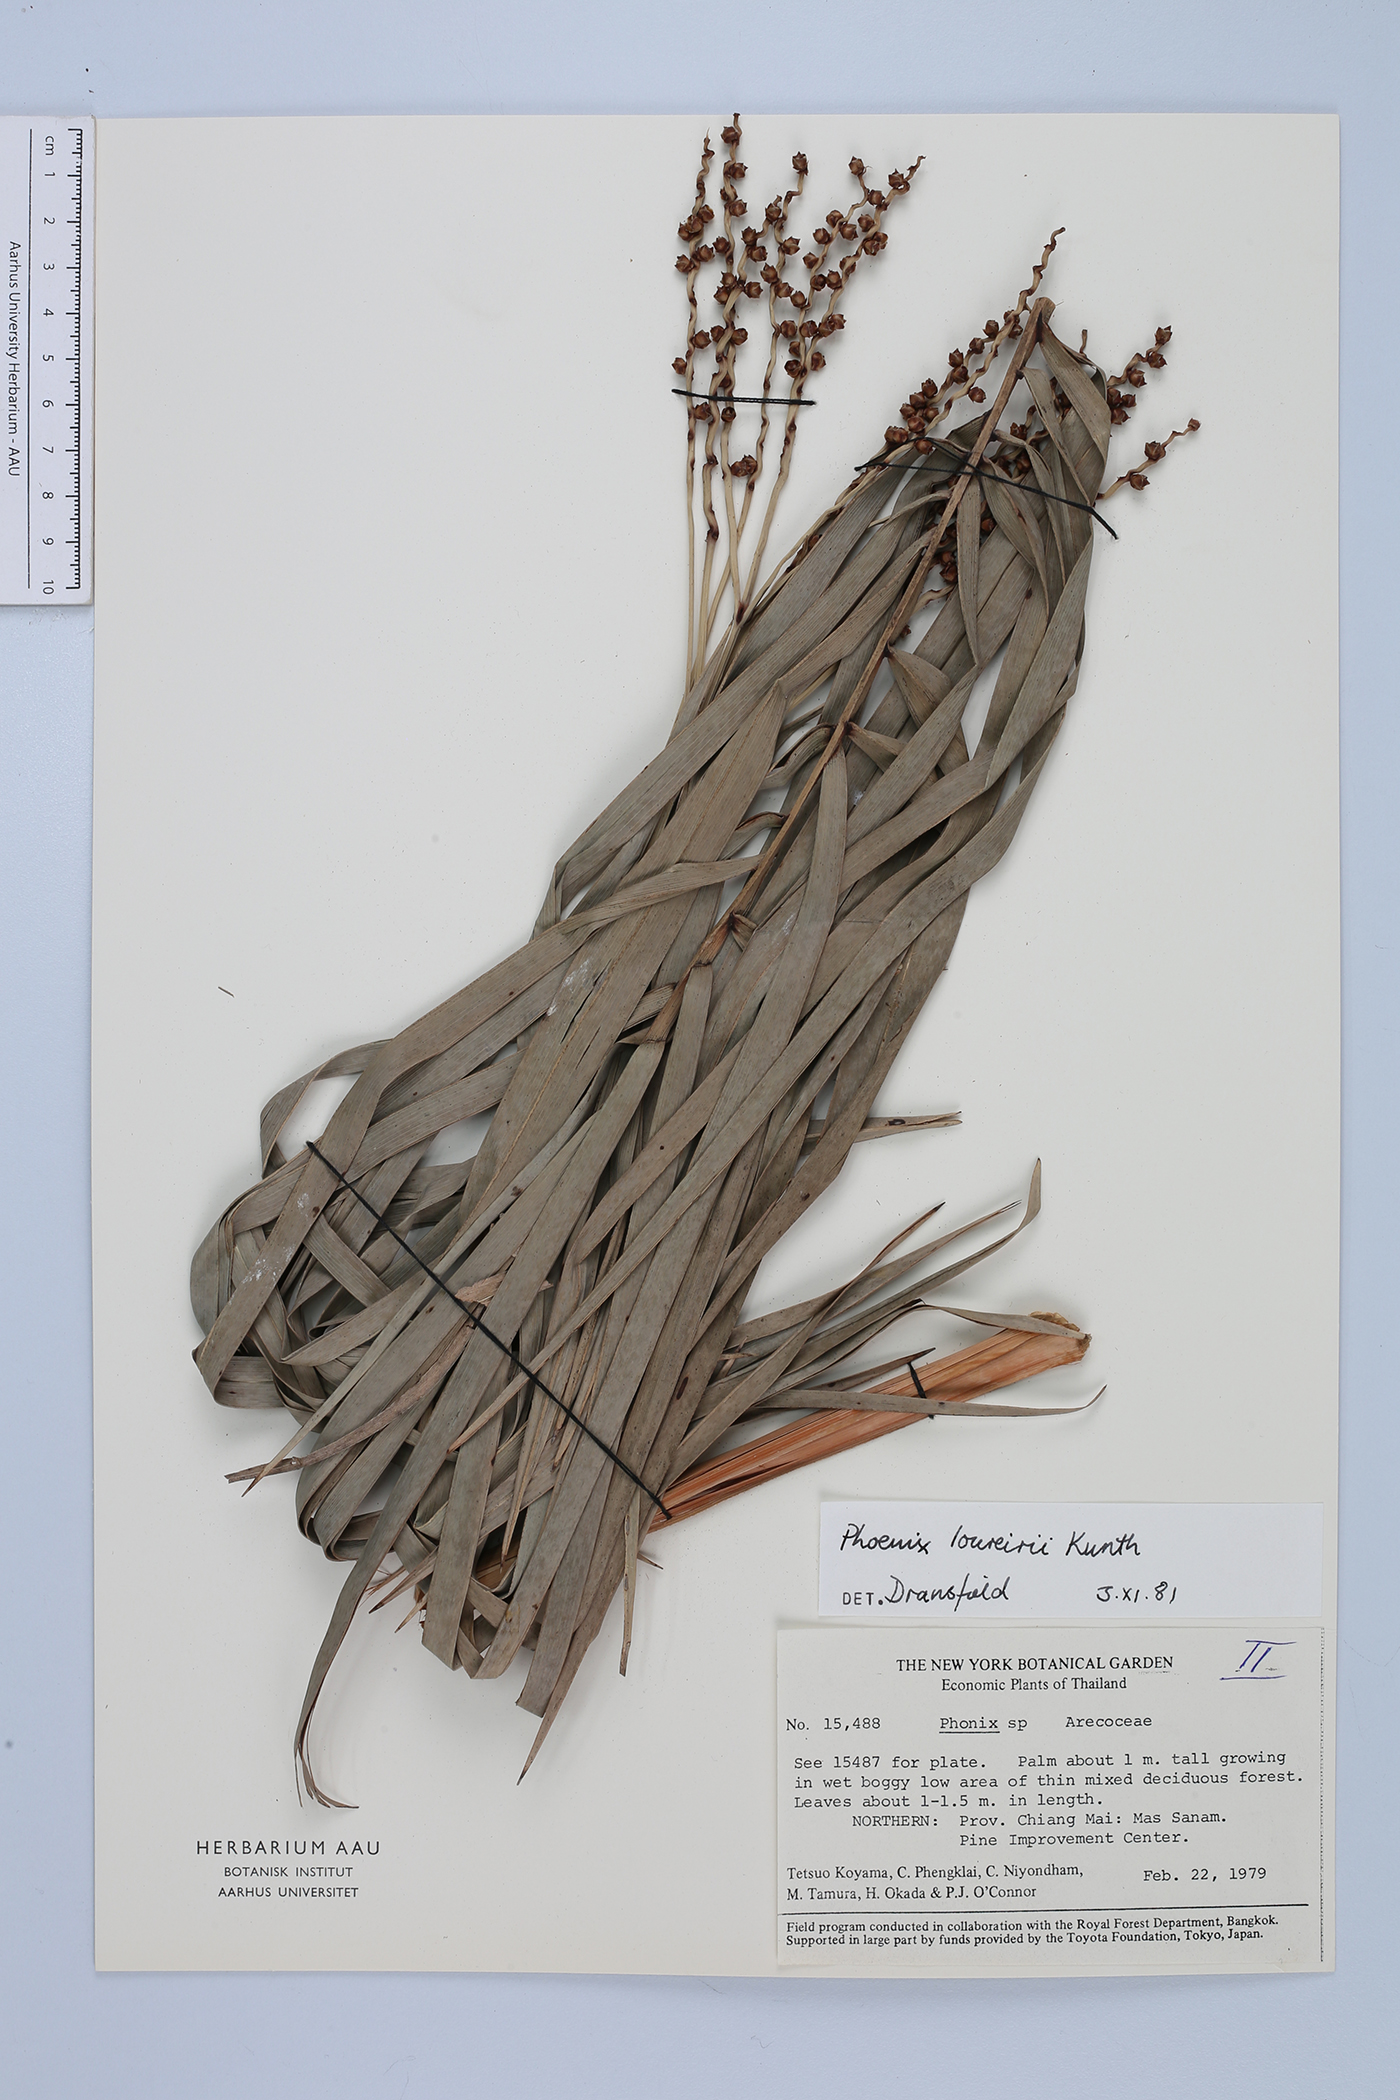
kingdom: Plantae
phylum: Tracheophyta
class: Liliopsida
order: Arecales
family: Arecaceae
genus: Phoenix
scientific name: Phoenix loureiroi
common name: Loureiro's palm
